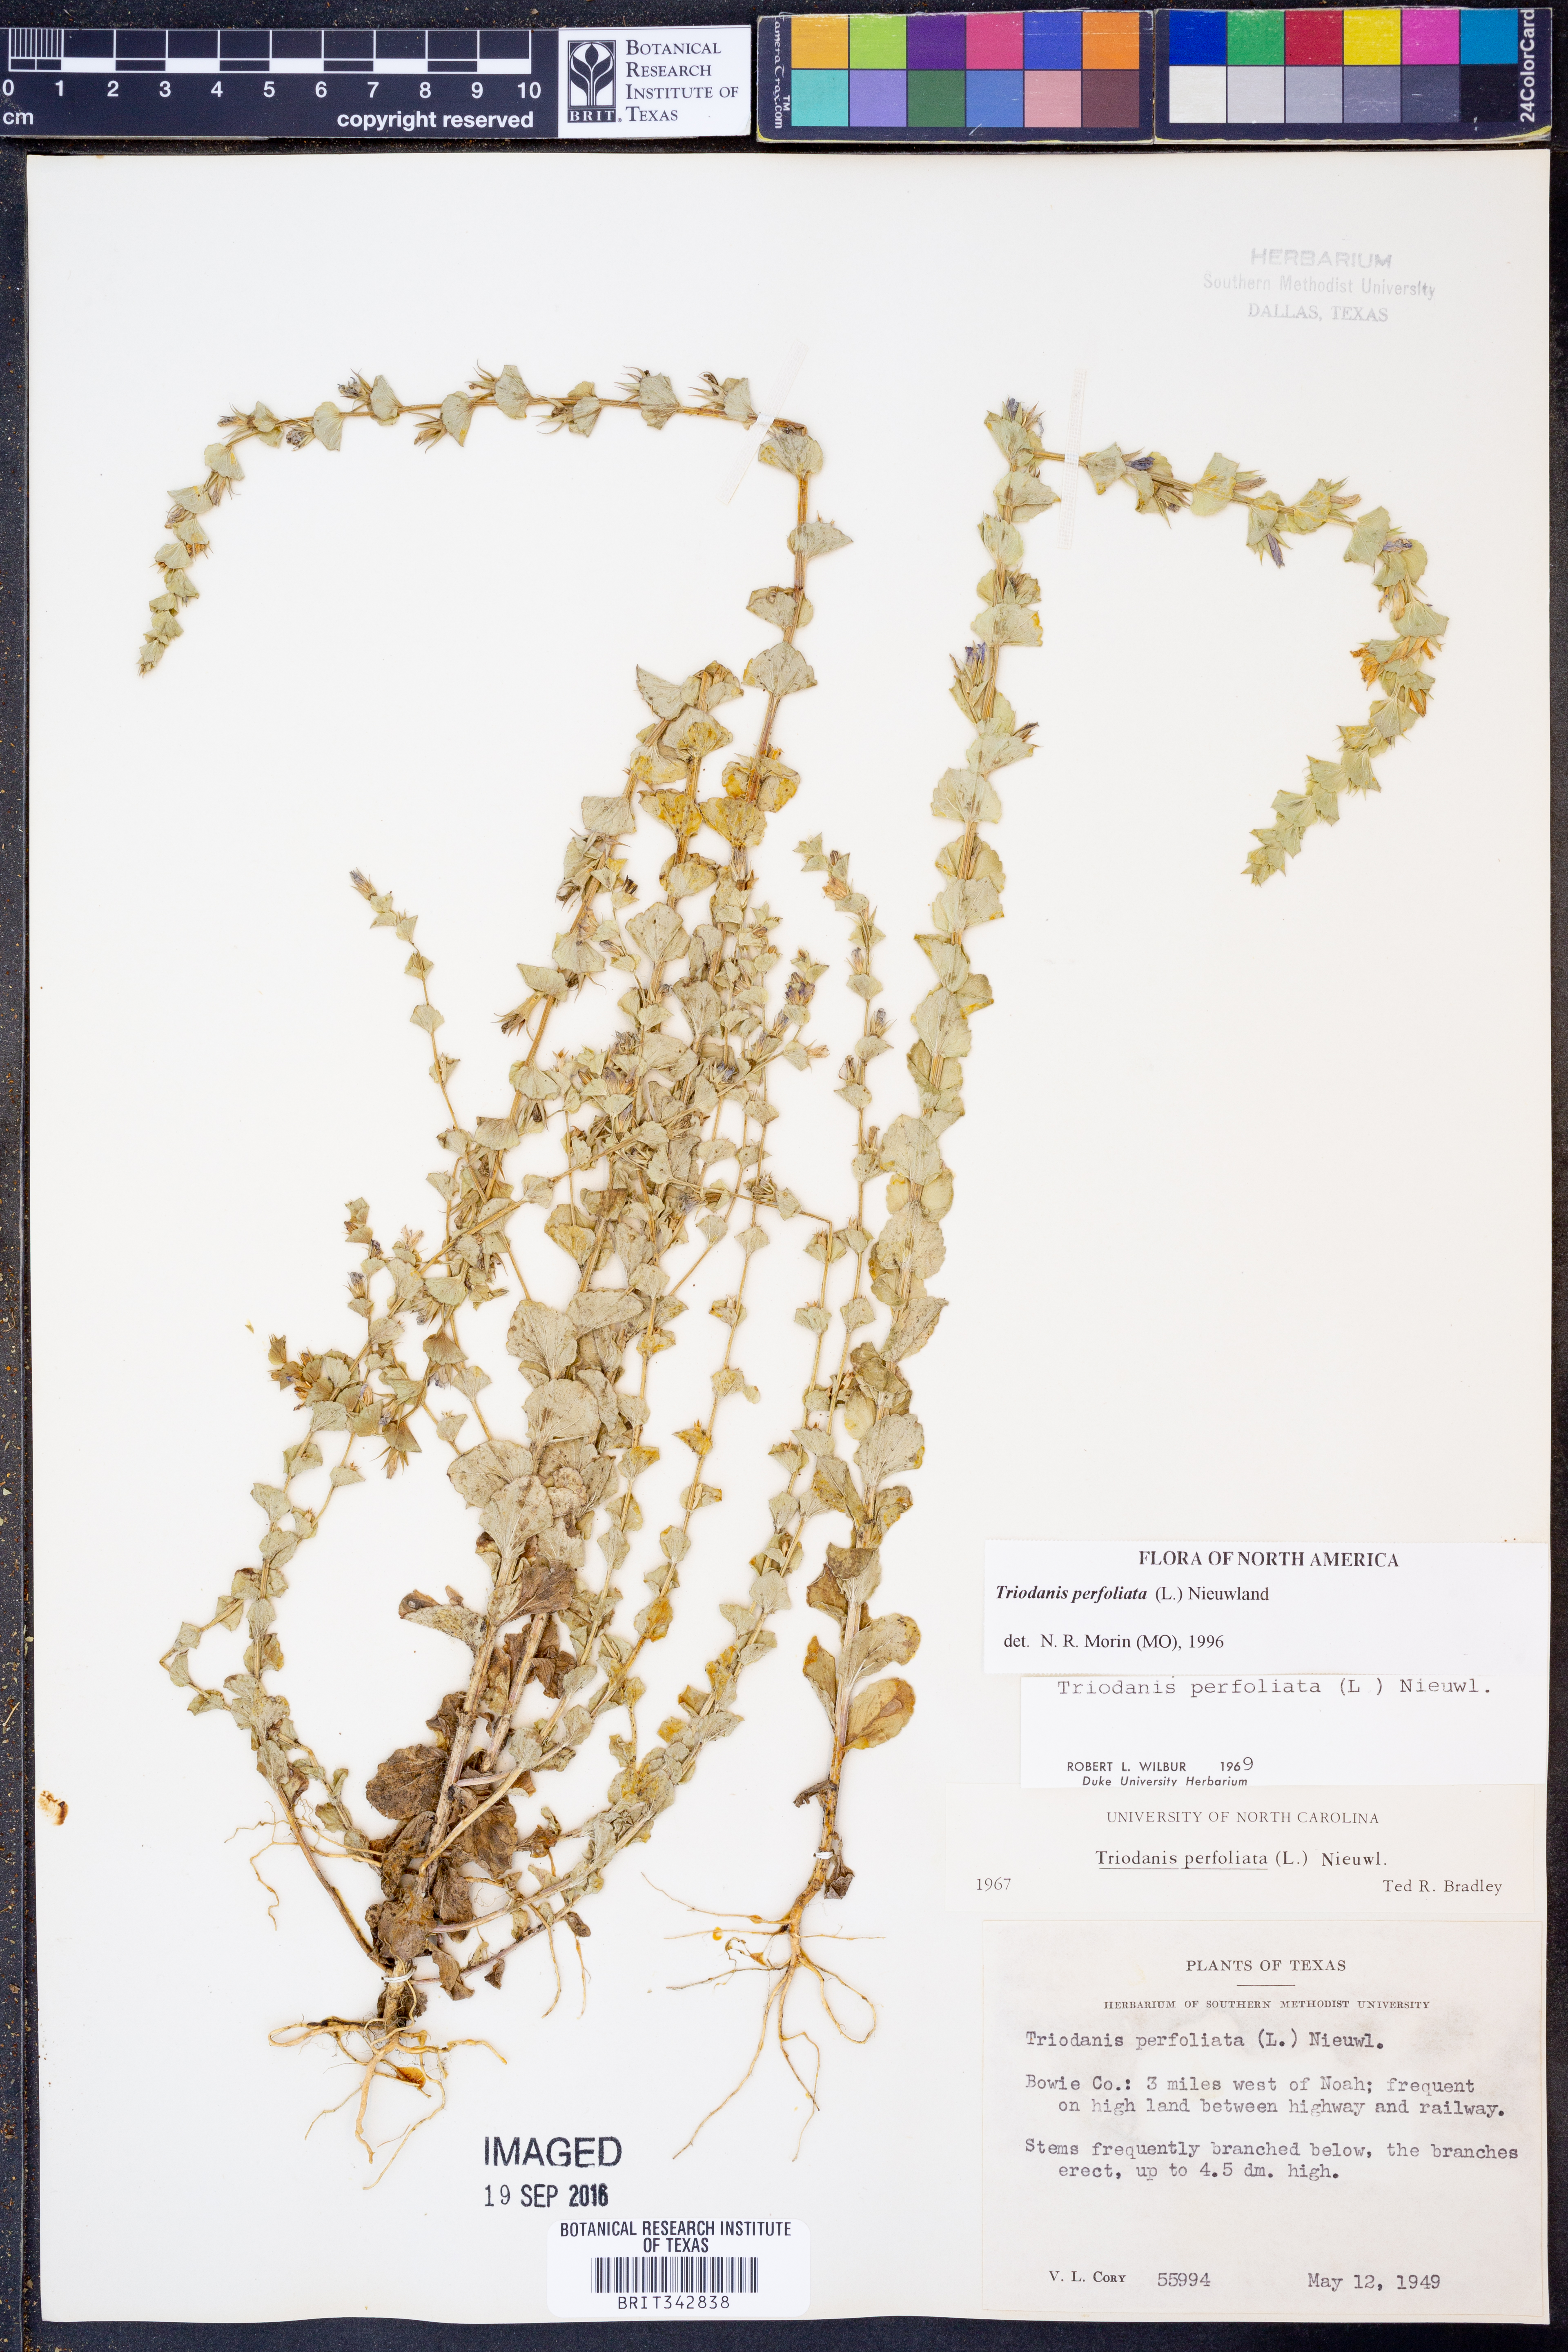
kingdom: Plantae
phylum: Tracheophyta
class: Magnoliopsida
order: Asterales
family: Campanulaceae
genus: Triodanis
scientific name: Triodanis perfoliata
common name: Clasping venus' looking-glass
